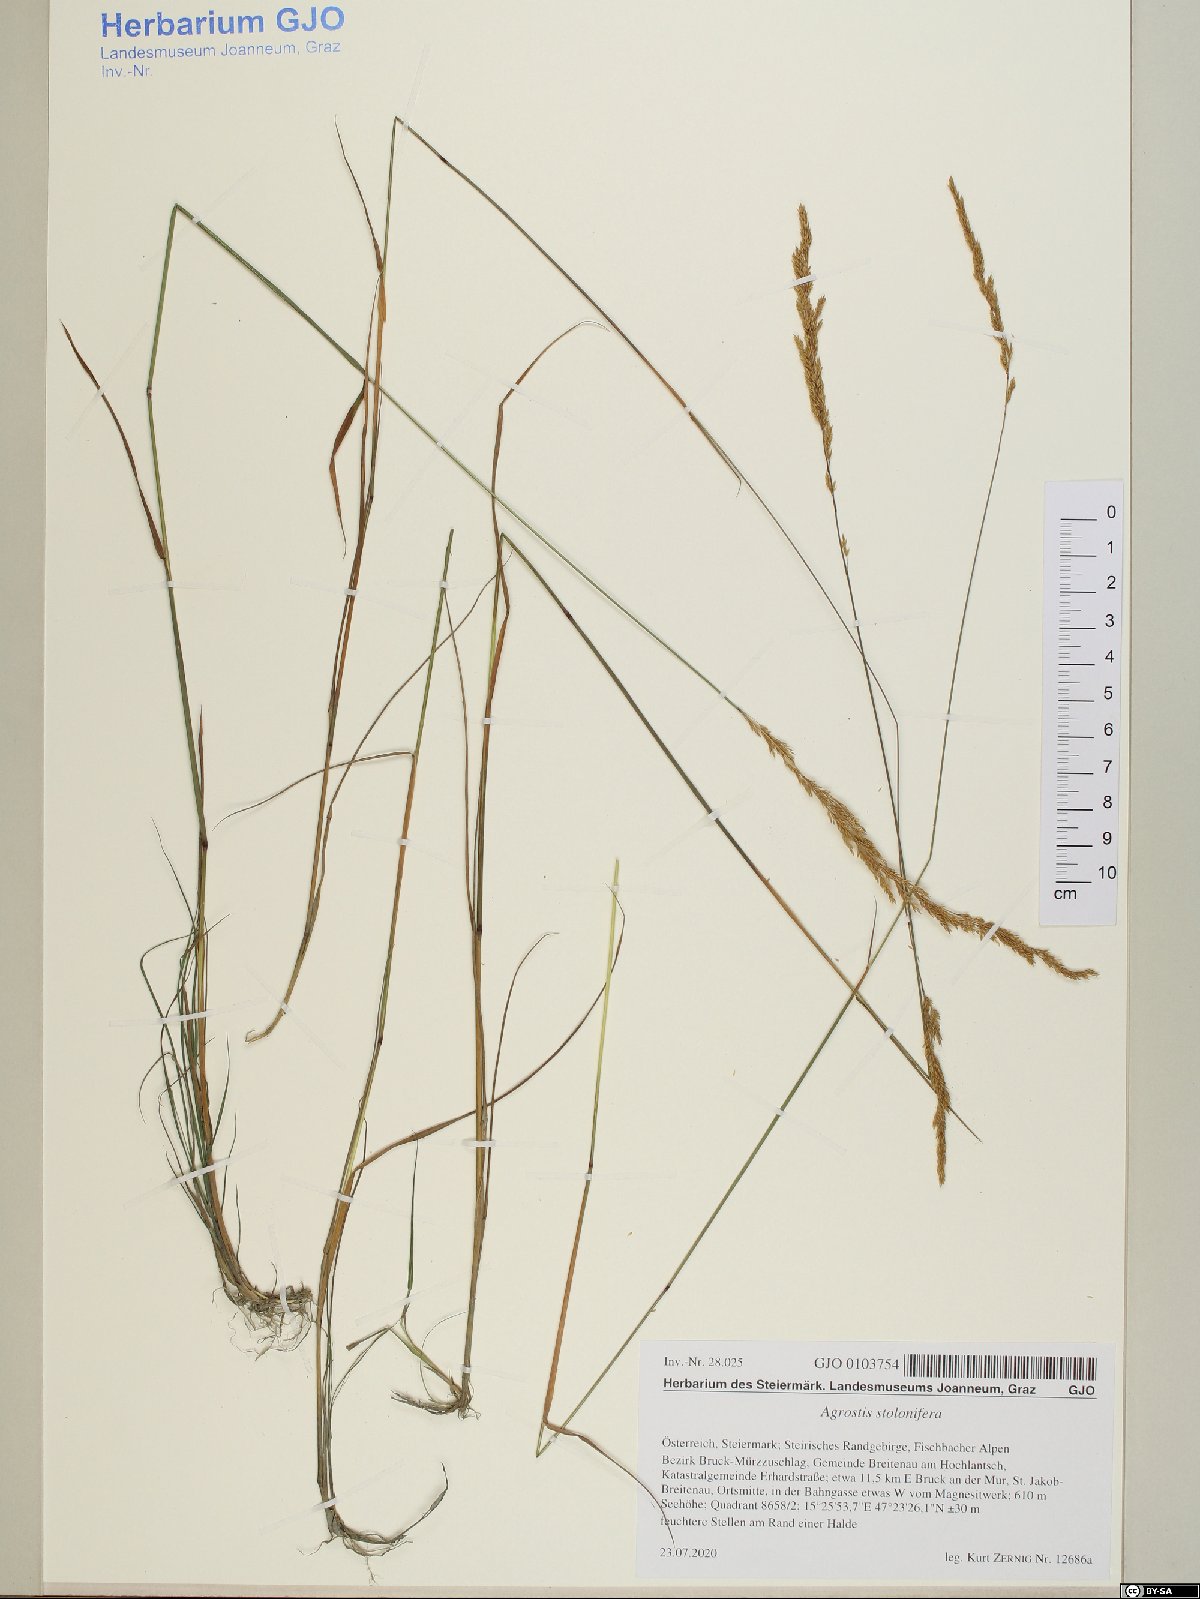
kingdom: Plantae
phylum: Tracheophyta
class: Liliopsida
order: Poales
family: Poaceae
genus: Agrostis
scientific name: Agrostis stolonifera
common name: Creeping bentgrass
